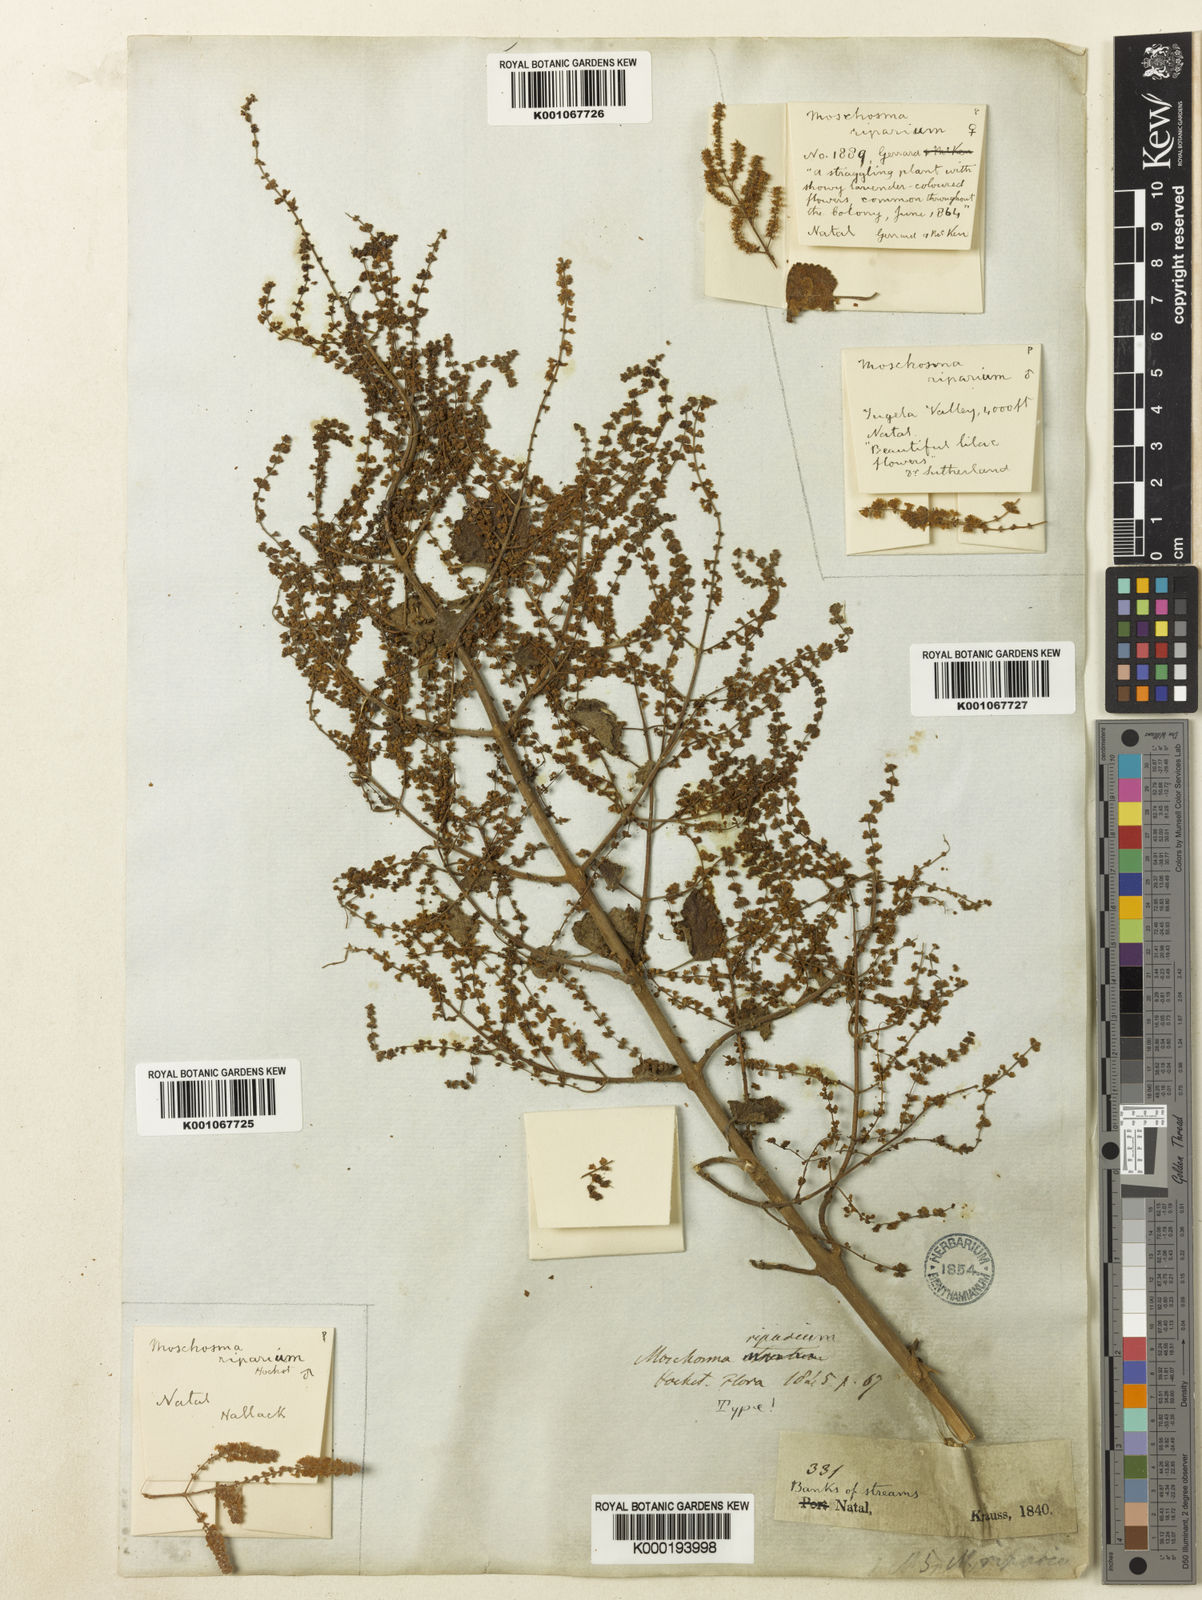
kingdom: Plantae
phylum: Tracheophyta
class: Magnoliopsida
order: Lamiales
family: Lamiaceae
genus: Tetradenia
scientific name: Tetradenia riparia
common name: Gingerbush
